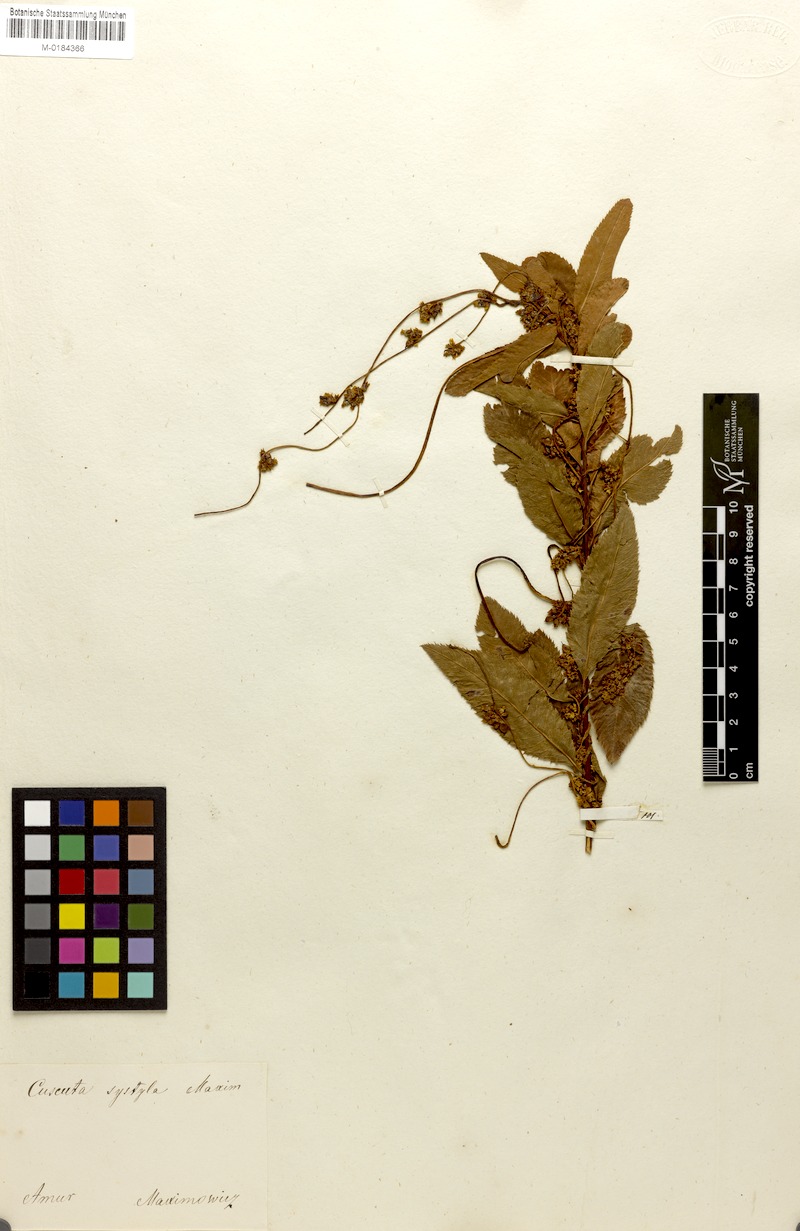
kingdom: Plantae
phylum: Tracheophyta
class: Magnoliopsida
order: Solanales
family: Convolvulaceae
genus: Cuscuta
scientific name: Cuscuta japonica
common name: Japanese dodder
